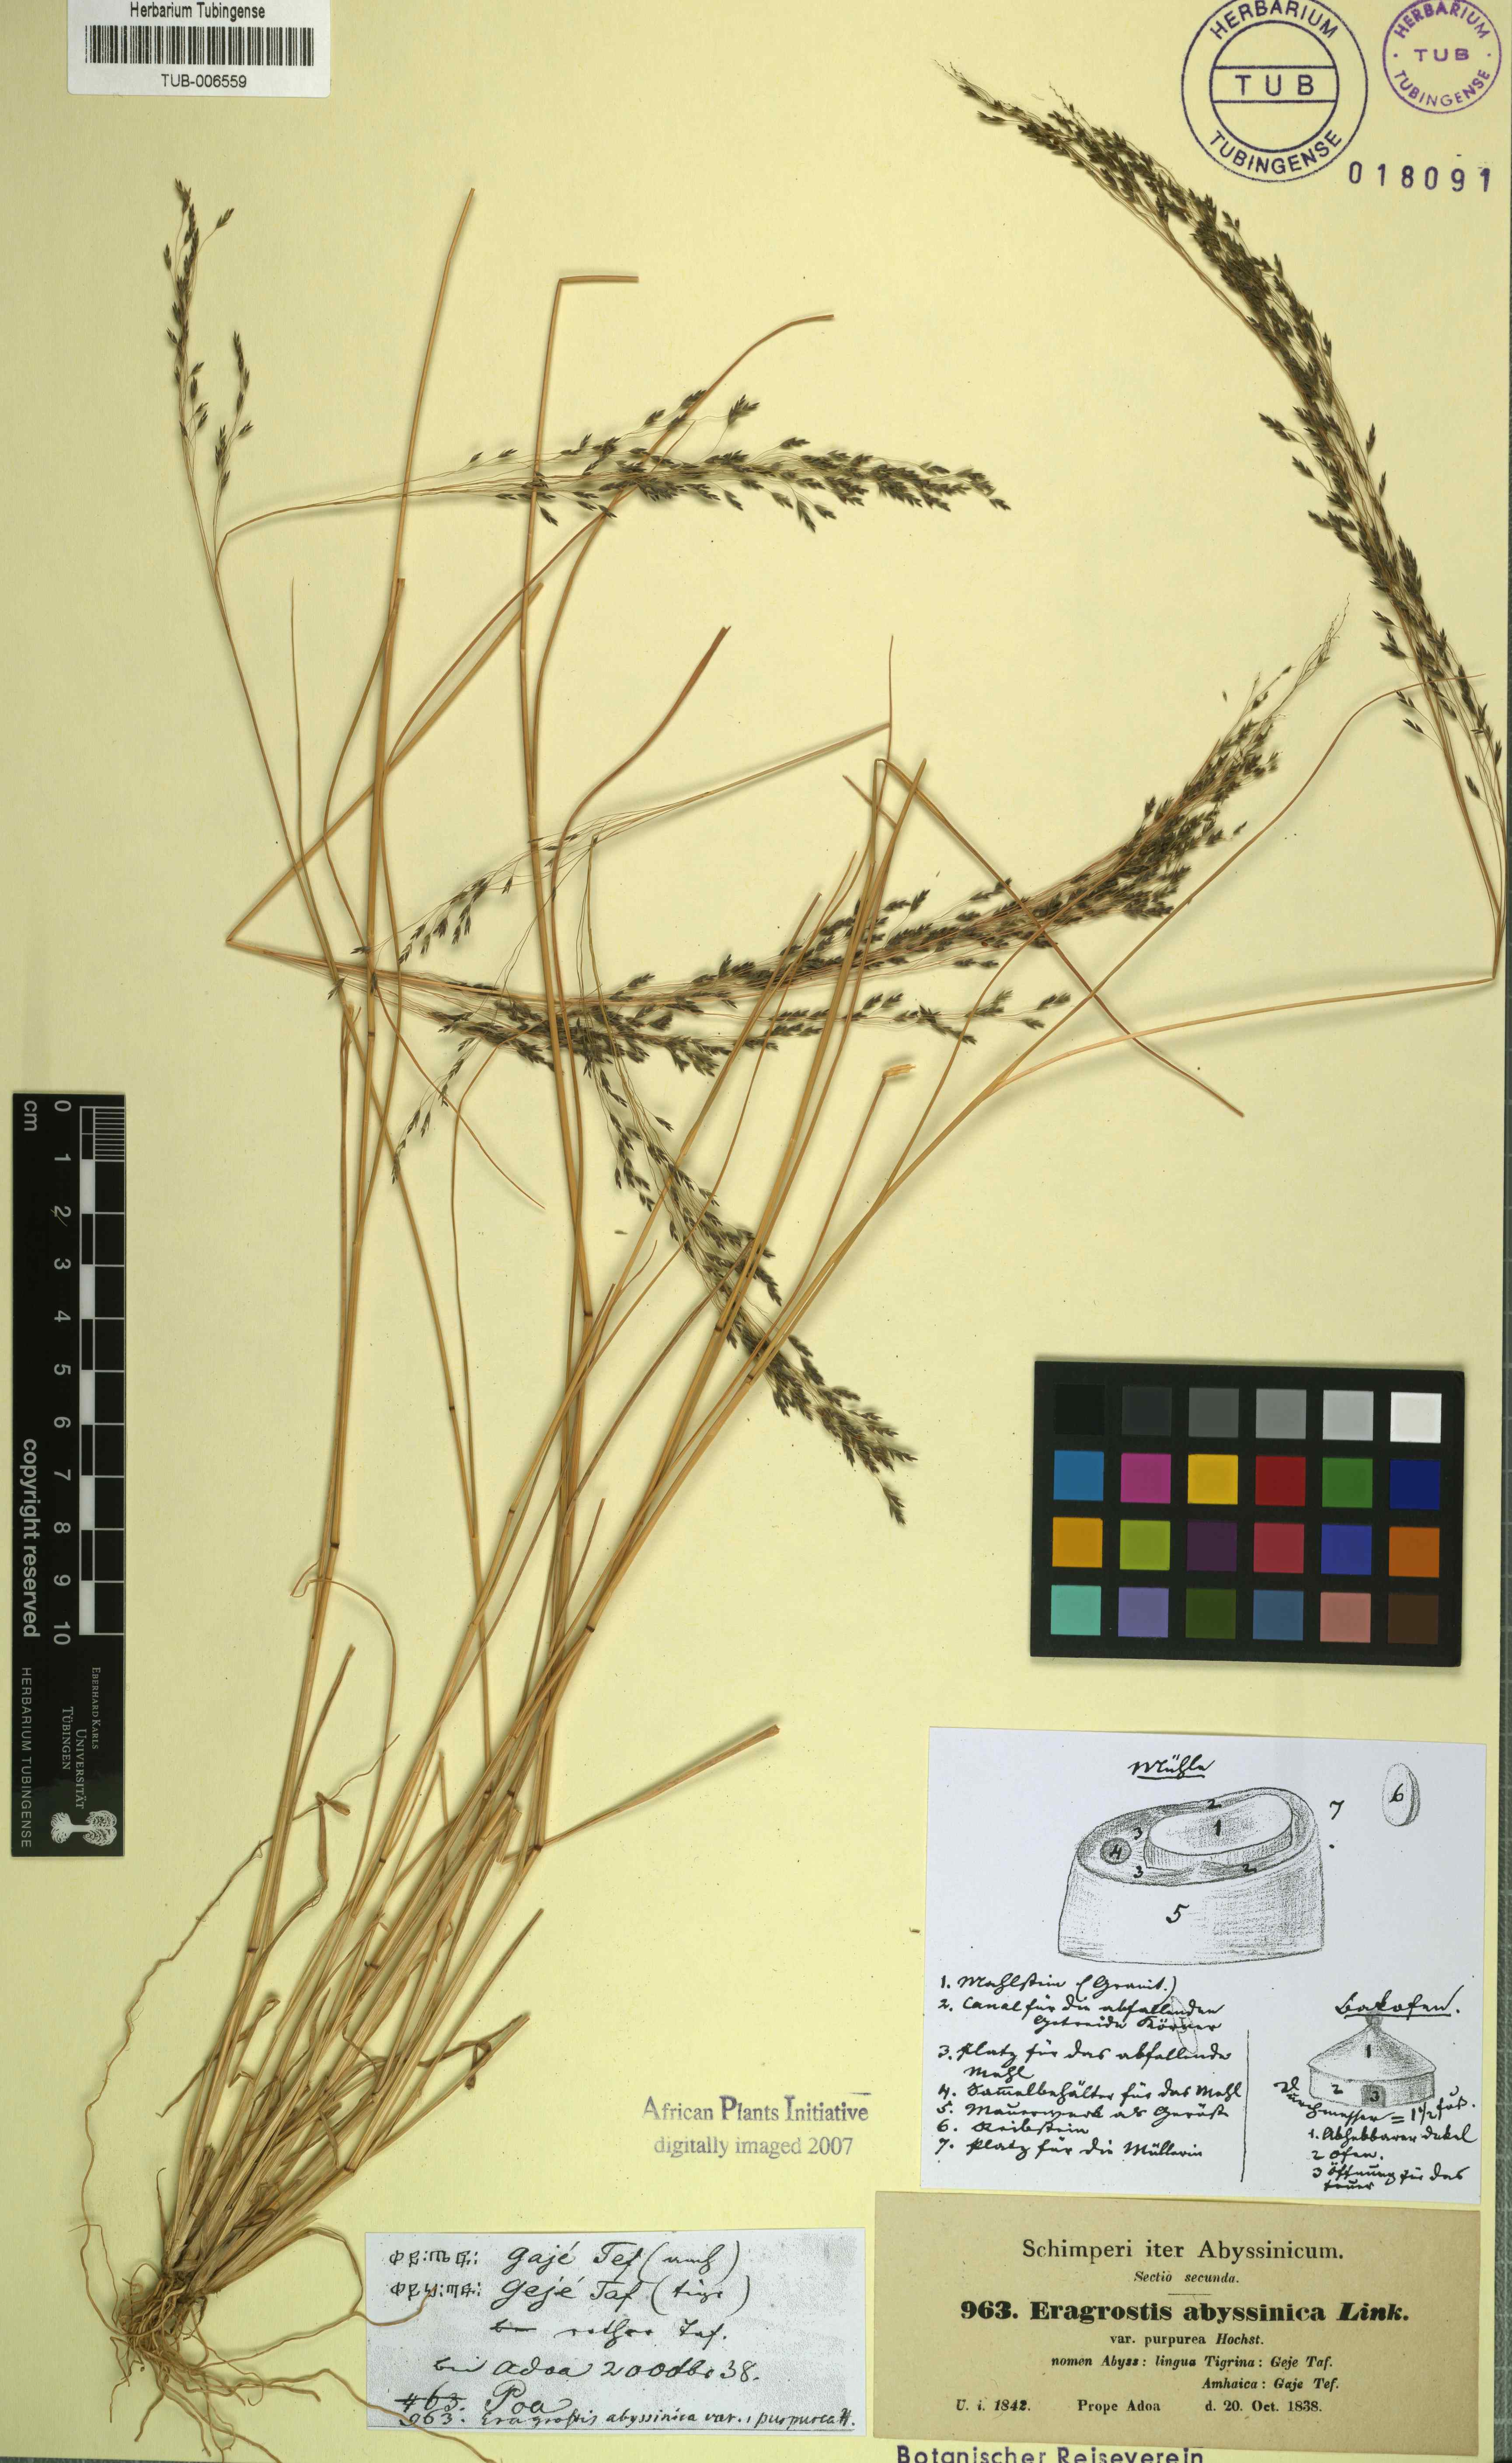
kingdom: Plantae
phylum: Tracheophyta
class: Liliopsida
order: Poales
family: Poaceae
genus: Eragrostis
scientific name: Eragrostis tef
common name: Teff
